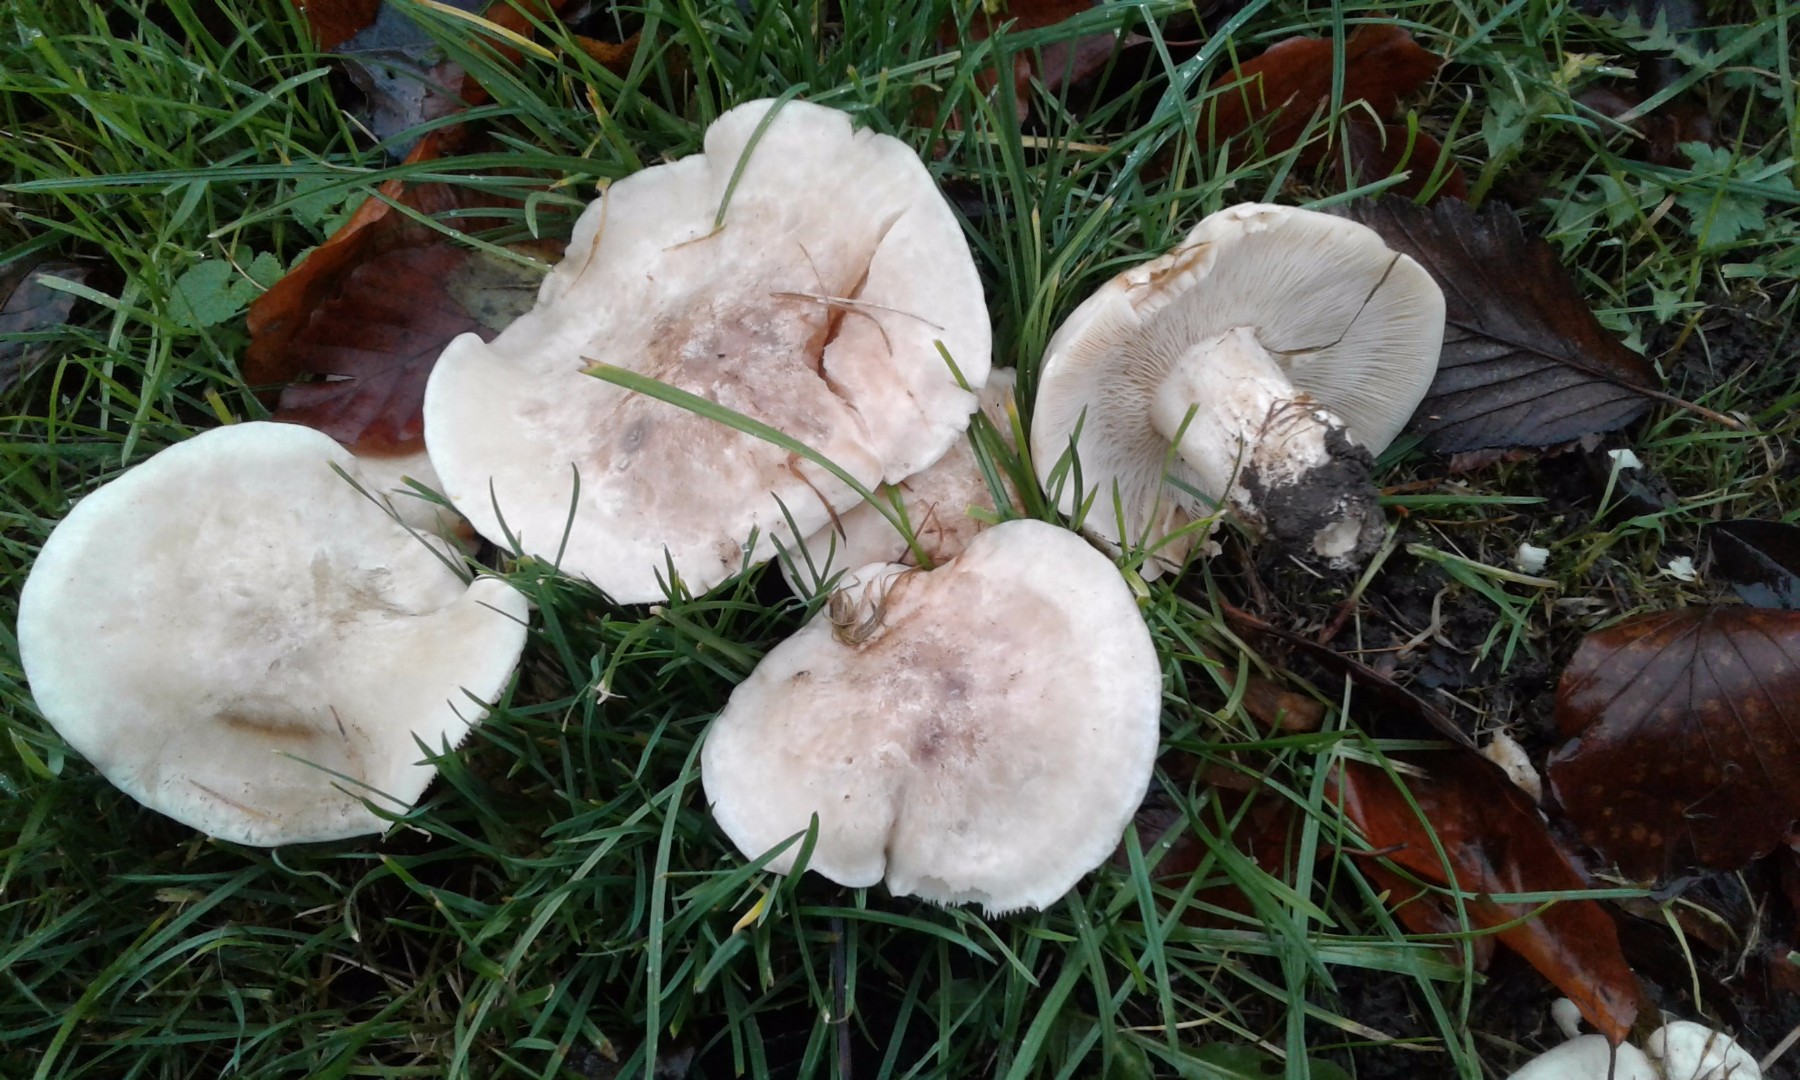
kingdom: Fungi
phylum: Basidiomycota
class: Agaricomycetes
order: Agaricales
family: Lyophyllaceae
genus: Calocybe
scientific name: Calocybe gambosa
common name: vårmusseron
